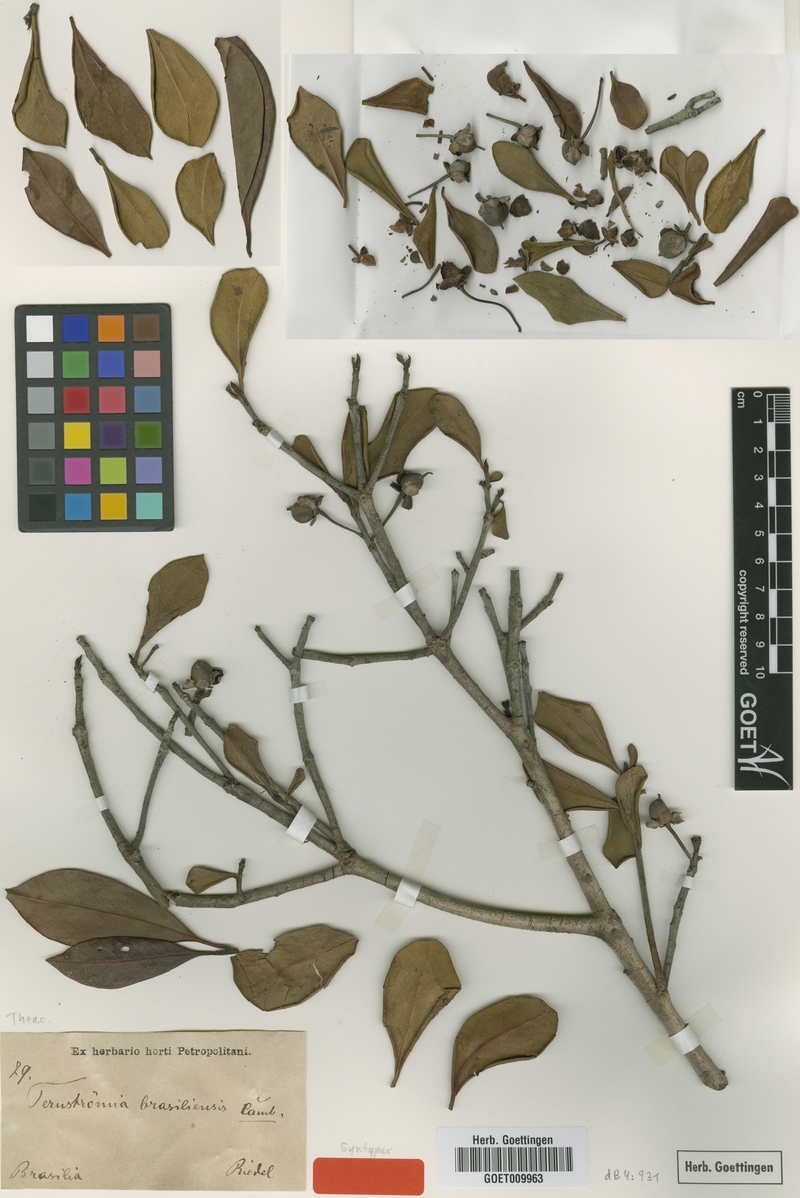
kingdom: Plantae
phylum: Tracheophyta
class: Magnoliopsida
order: Ericales
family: Pentaphylacaceae
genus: Ternstroemia
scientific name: Ternstroemia brasiliensis
